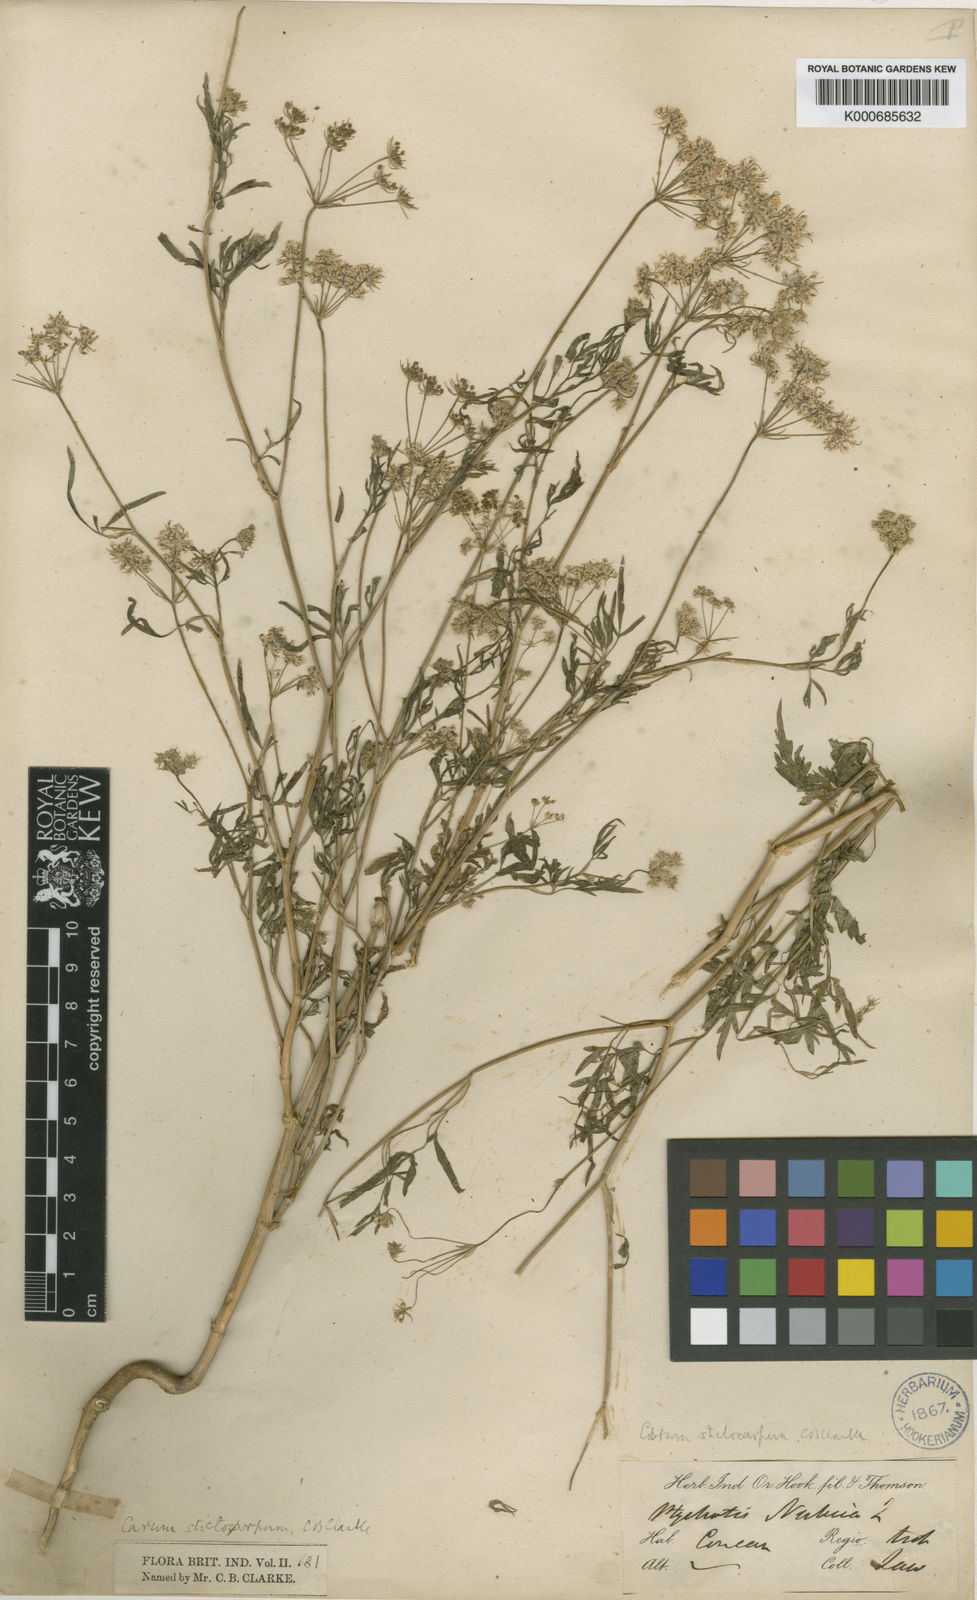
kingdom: Plantae
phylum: Tracheophyta
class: Magnoliopsida
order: Apiales
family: Apiaceae
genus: Psammogeton
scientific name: Psammogeton involucratum
